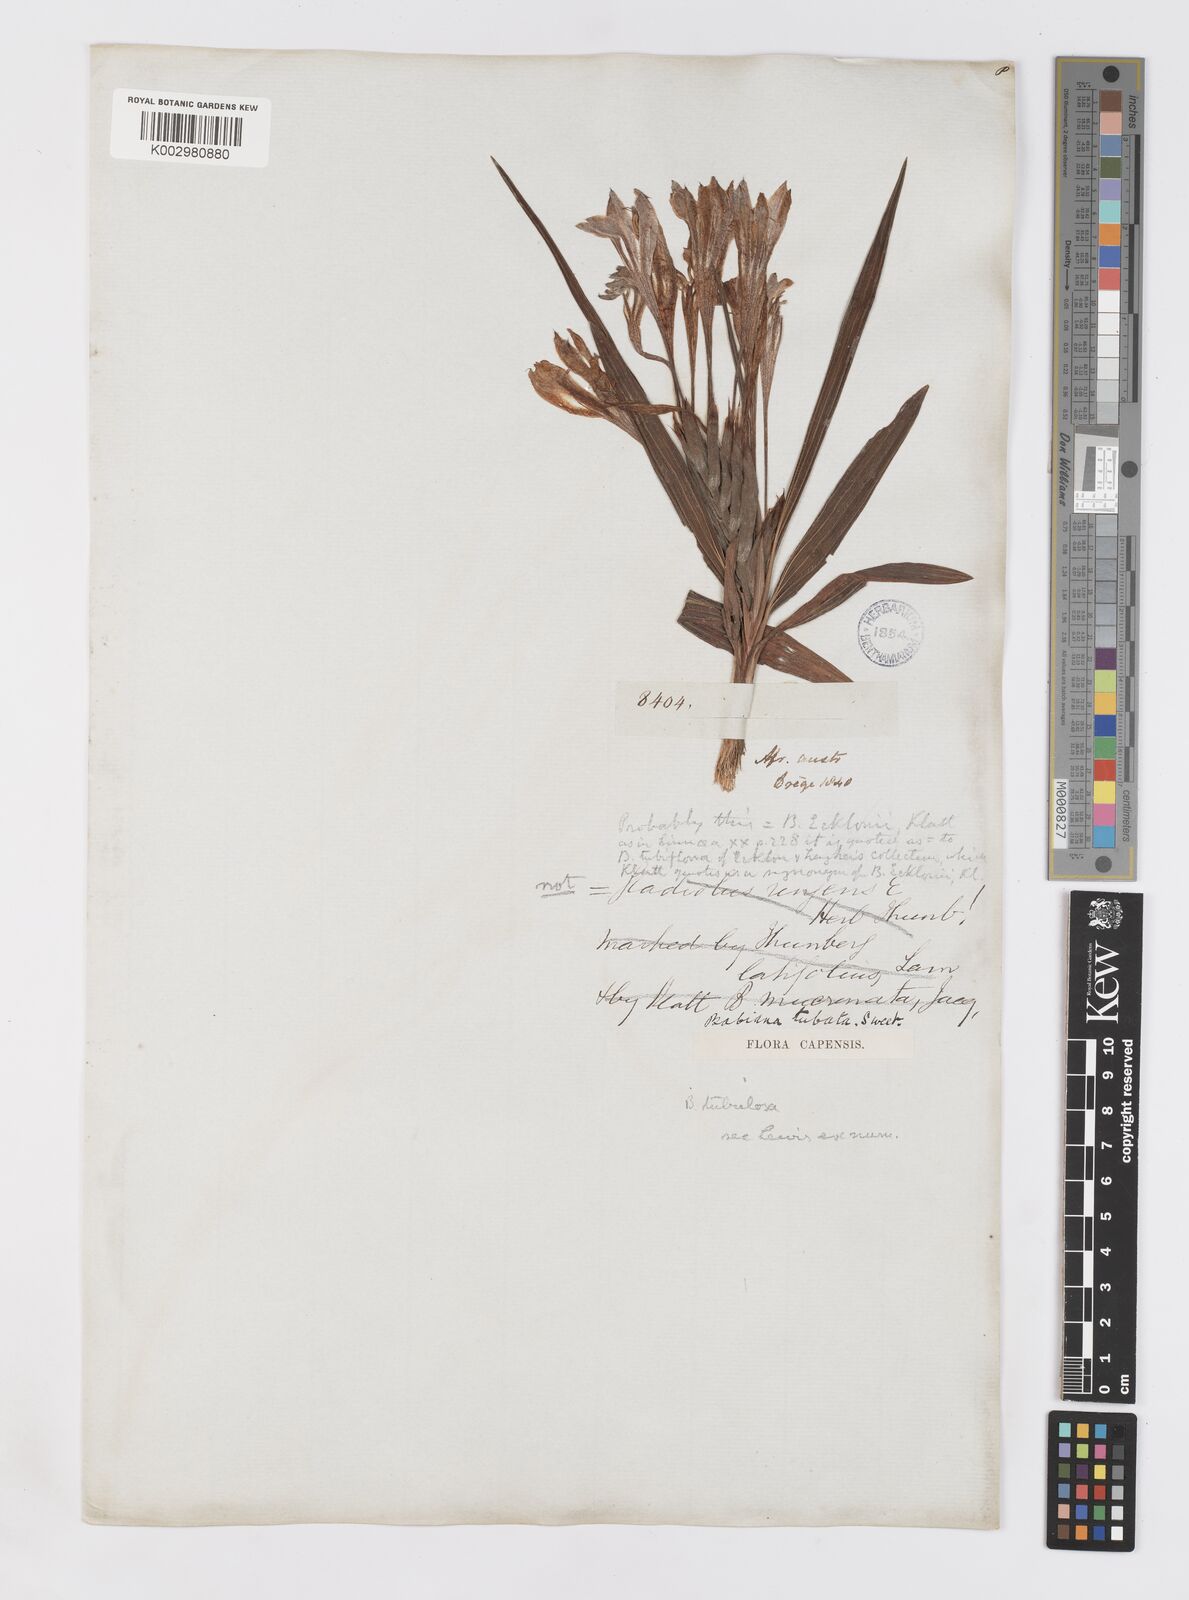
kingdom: Plantae
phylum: Tracheophyta
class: Liliopsida
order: Asparagales
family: Iridaceae
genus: Babiana
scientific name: Babiana tubulosa
